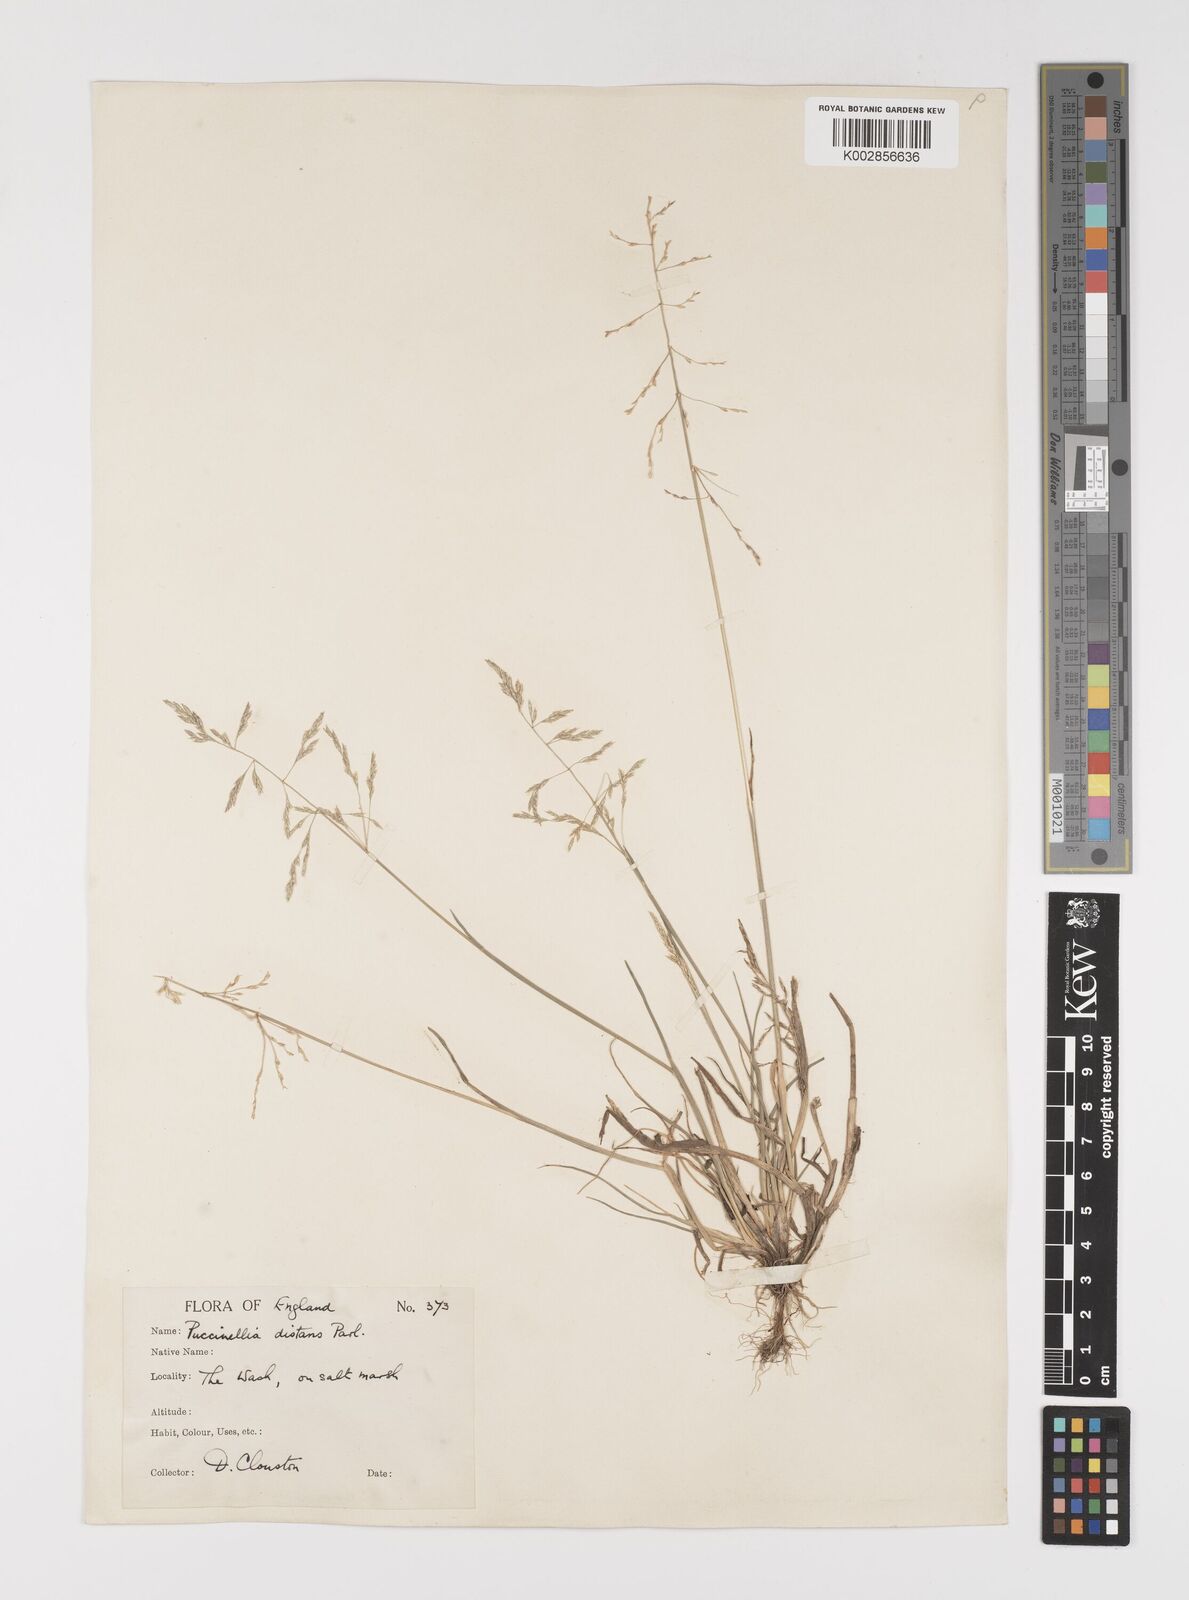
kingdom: Plantae
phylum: Tracheophyta
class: Liliopsida
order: Poales
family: Poaceae
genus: Puccinellia
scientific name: Puccinellia distans
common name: Weeping alkaligrass
